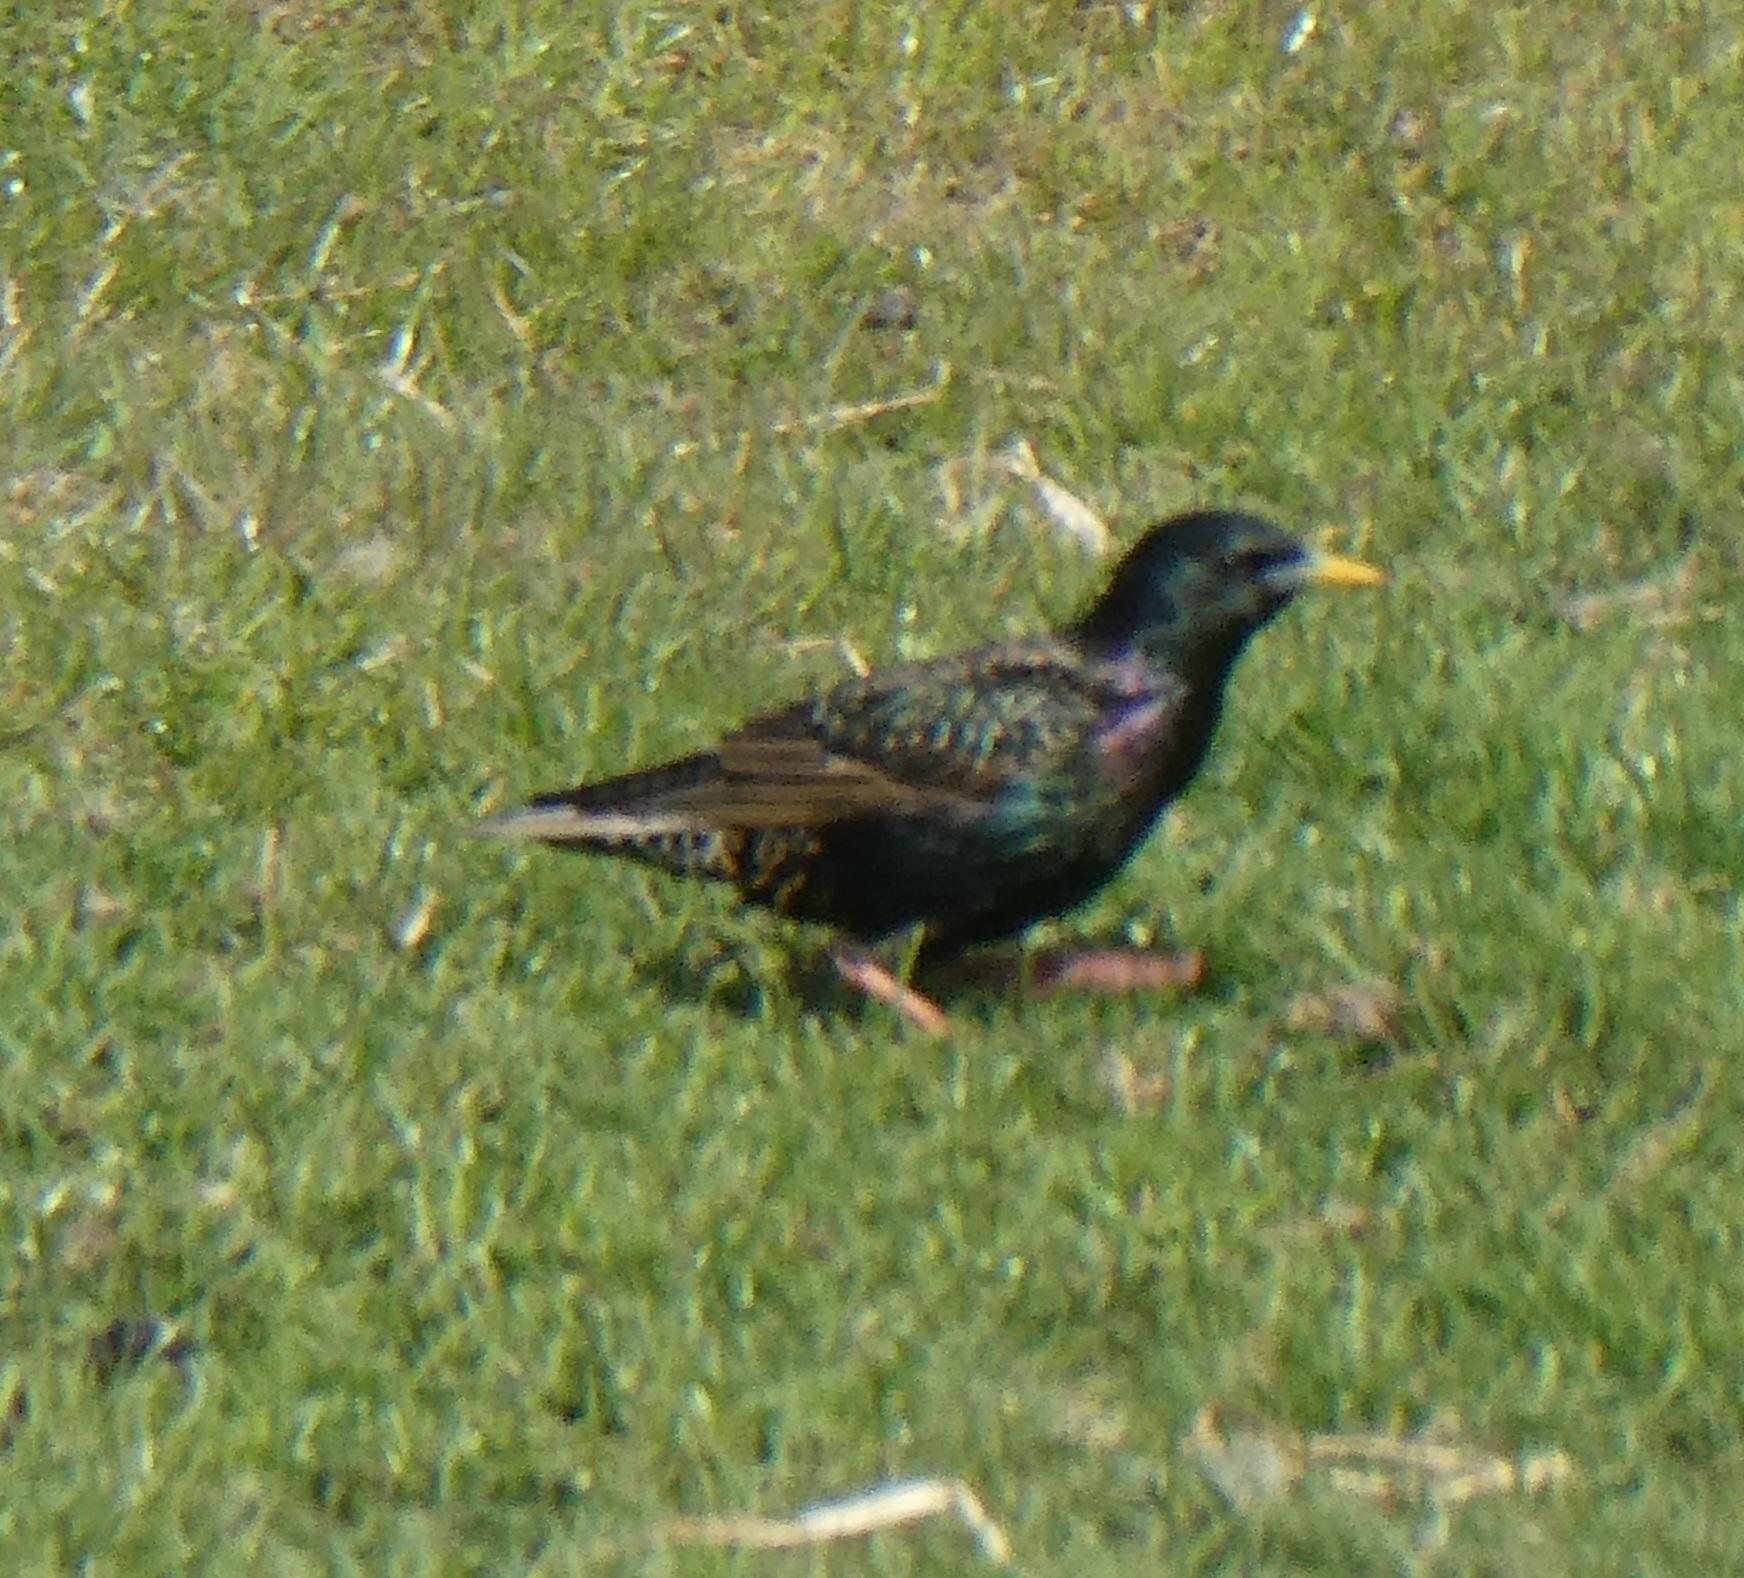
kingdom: Animalia
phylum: Chordata
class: Aves
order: Passeriformes
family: Sturnidae
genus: Sturnus
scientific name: Sturnus vulgaris
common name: Stær
